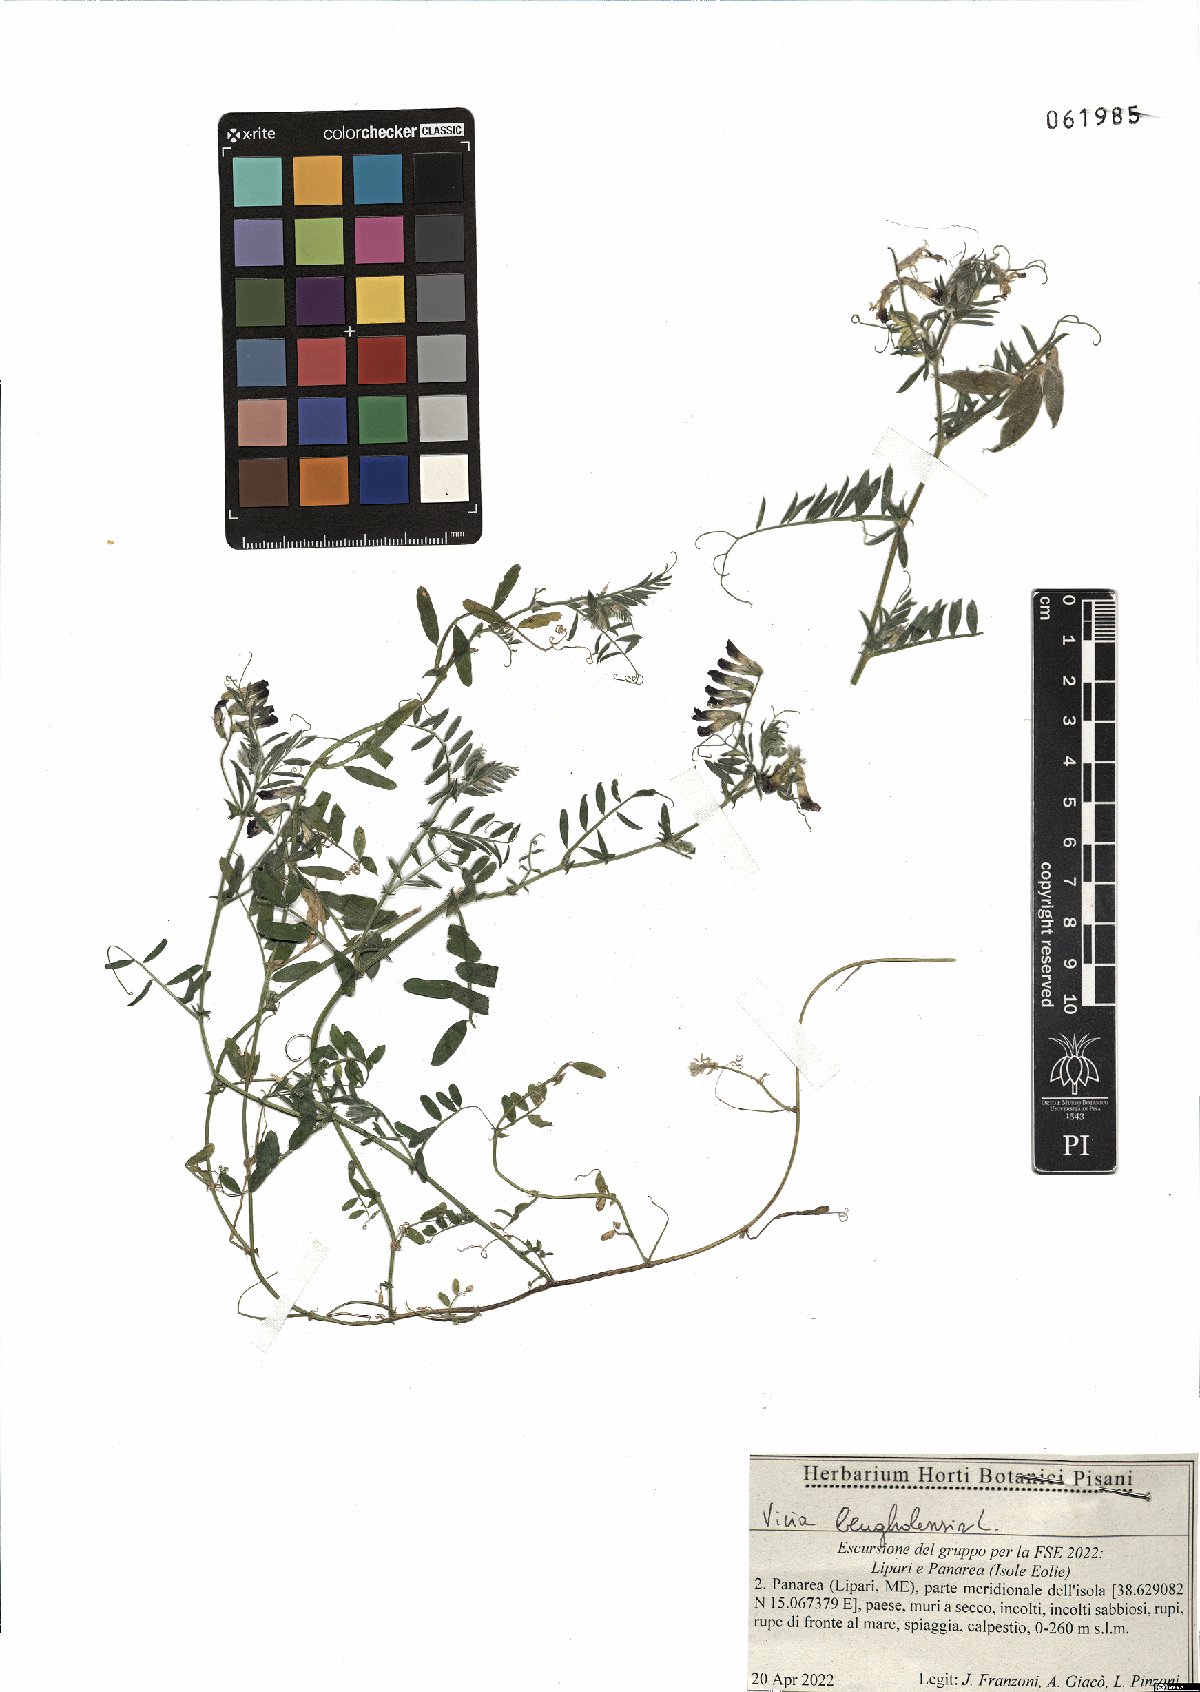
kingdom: Plantae
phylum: Tracheophyta
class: Magnoliopsida
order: Fabales
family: Fabaceae
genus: Vicia
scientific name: Vicia benghalensis
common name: Purple vetch
